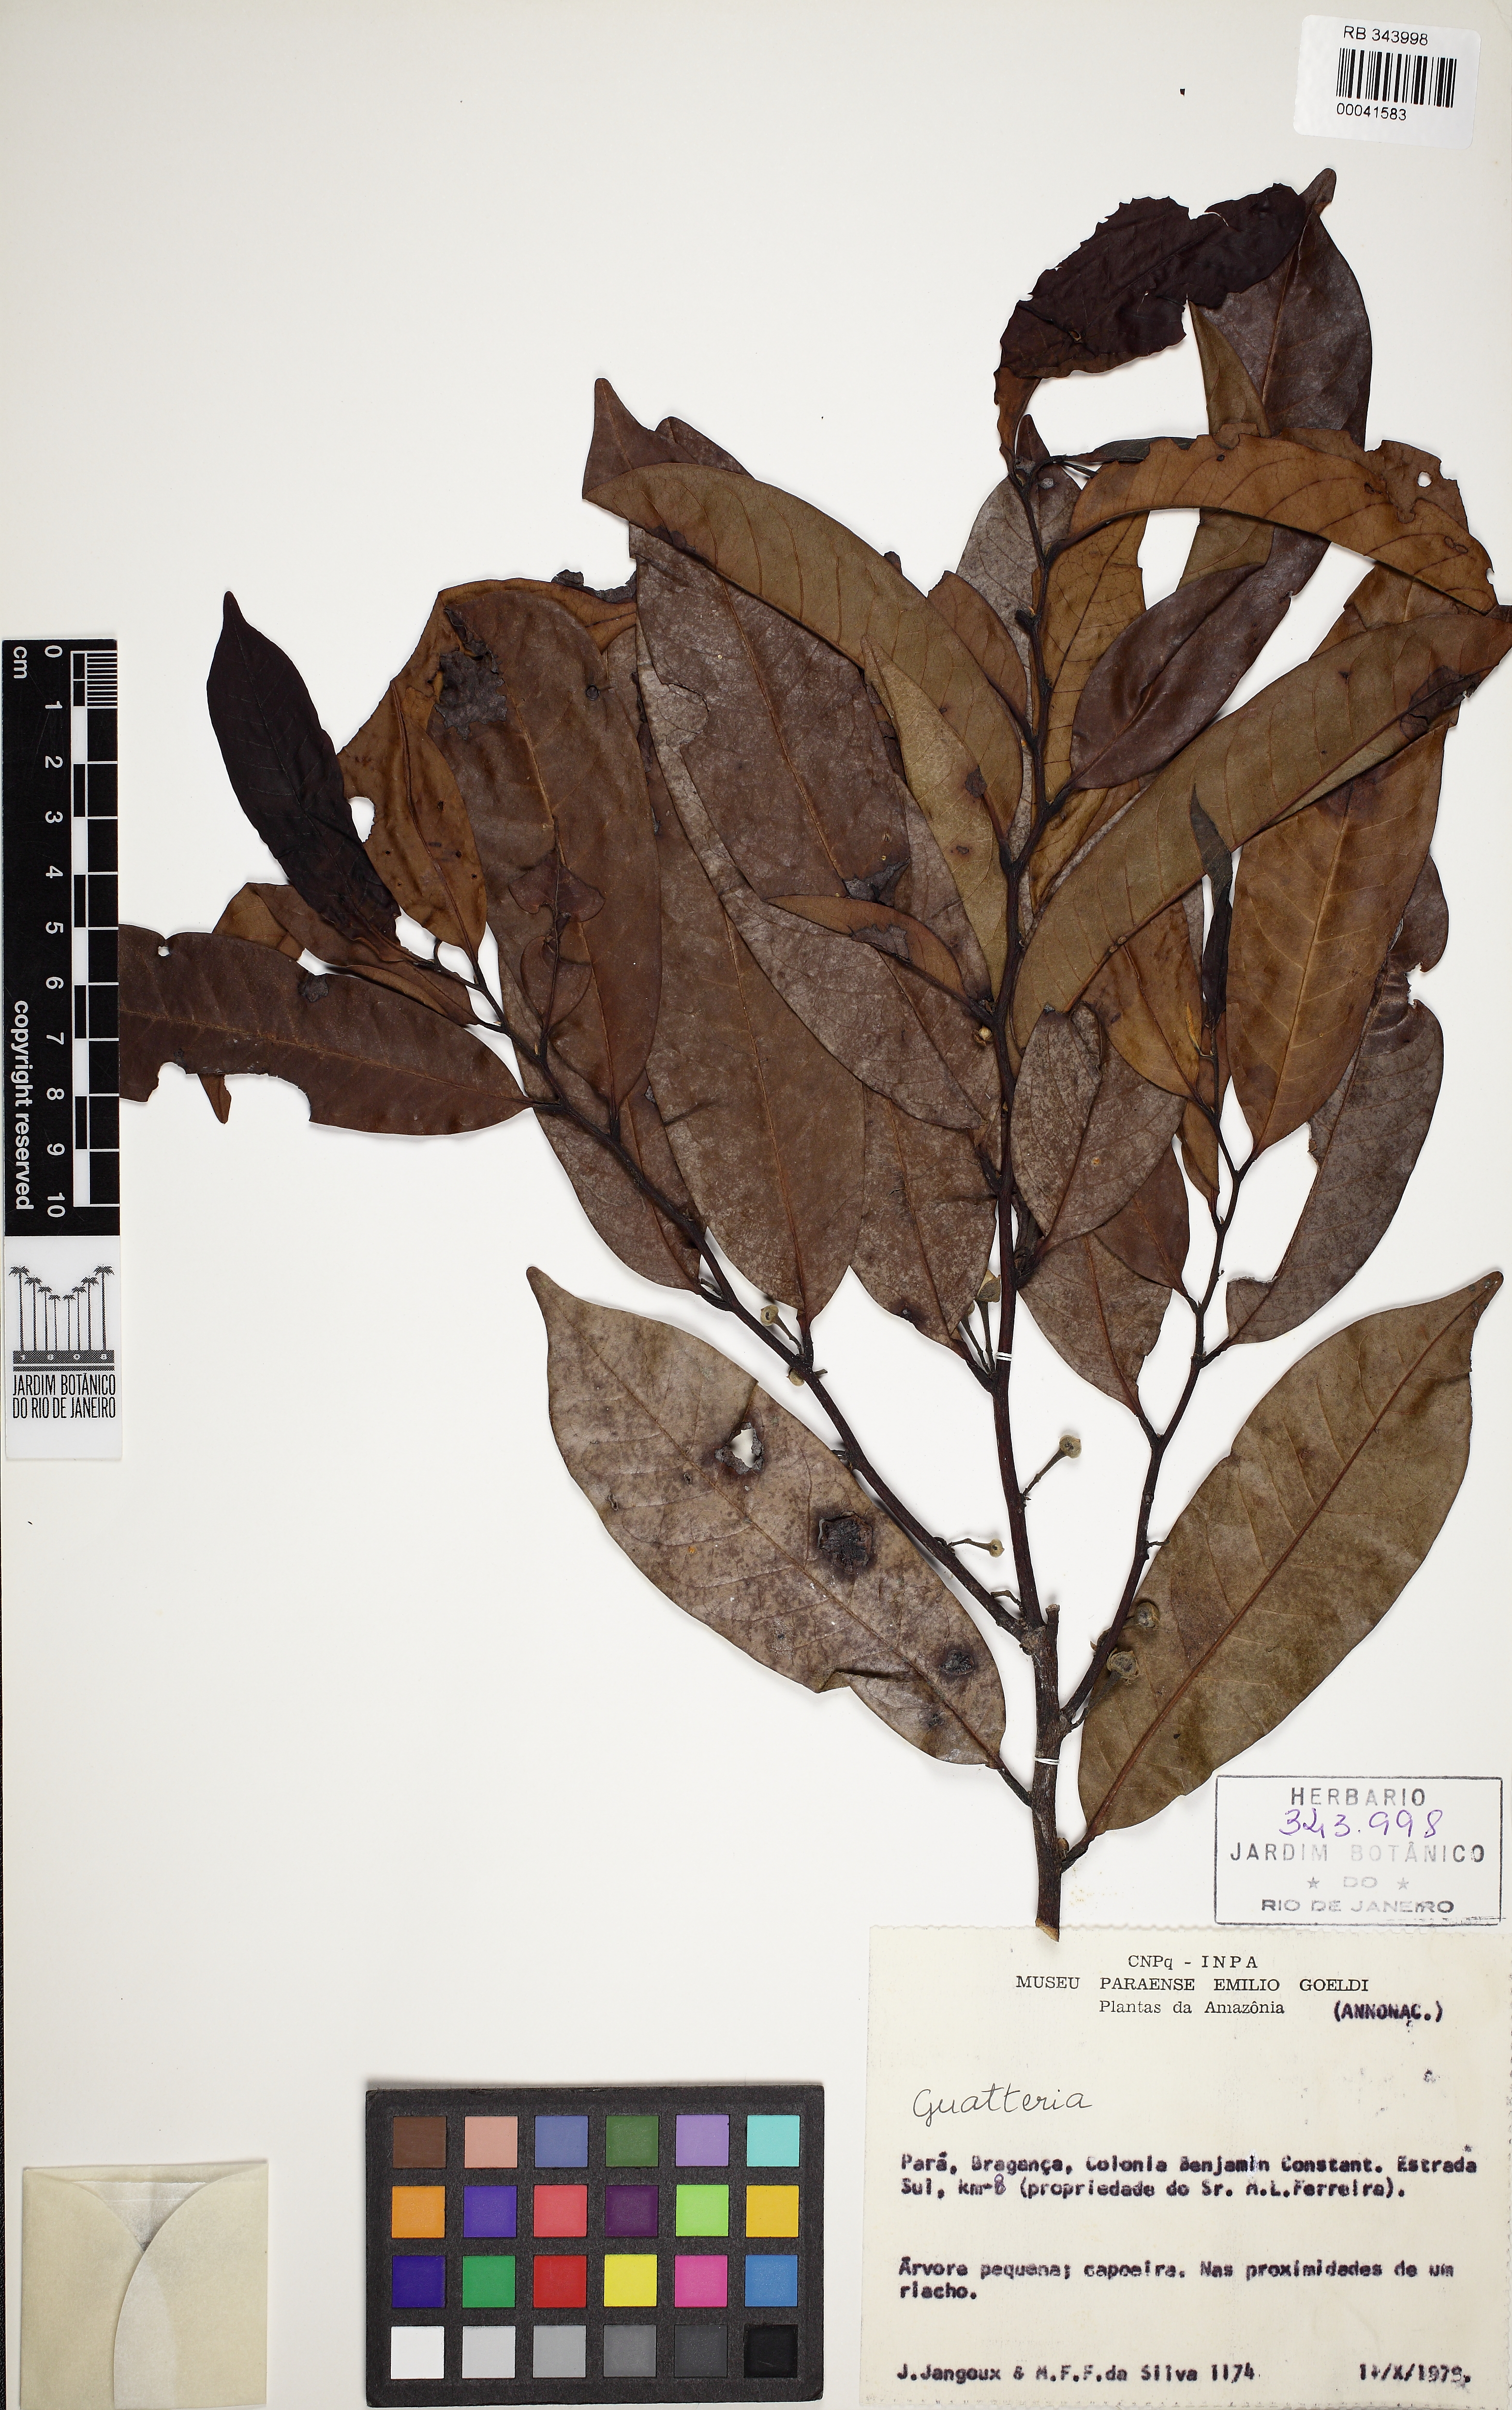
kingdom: Plantae
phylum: Tracheophyta
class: Magnoliopsida
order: Magnoliales
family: Annonaceae
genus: Guatteria
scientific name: Guatteria punctata
